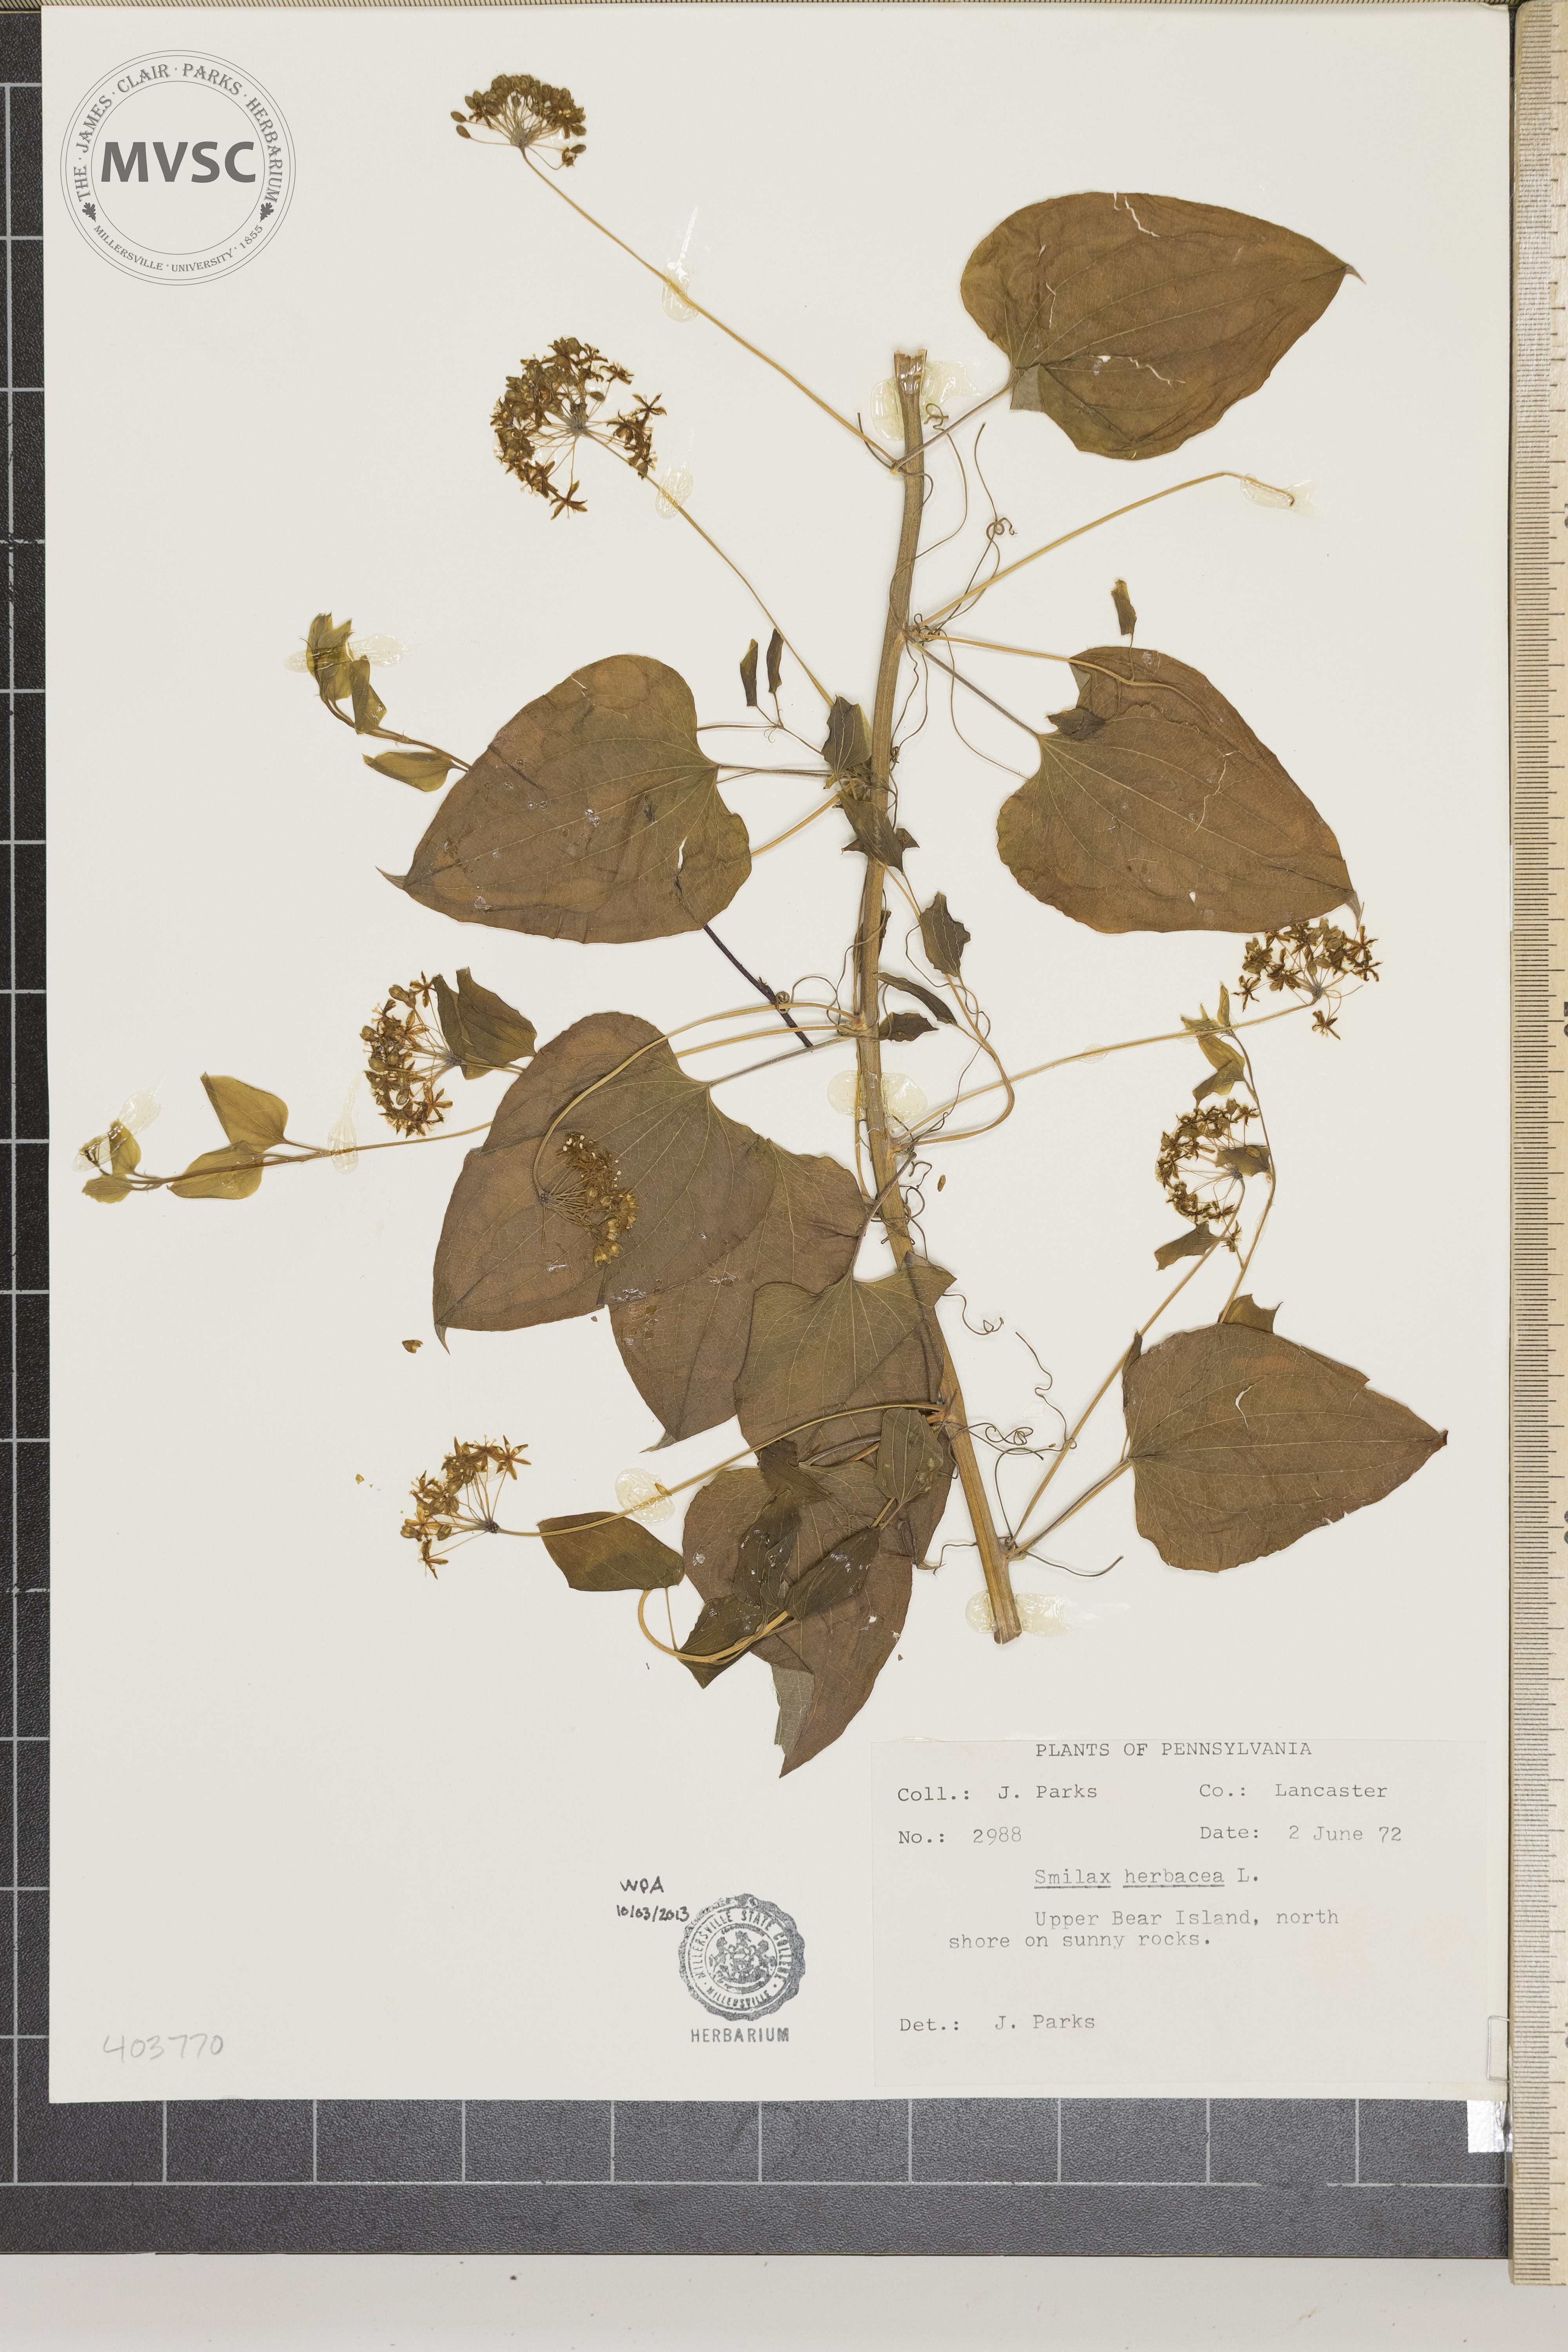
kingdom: Plantae
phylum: Tracheophyta
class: Liliopsida
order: Liliales
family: Smilacaceae
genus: Smilax
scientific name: Smilax herbacea
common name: Jacob's-ladder
